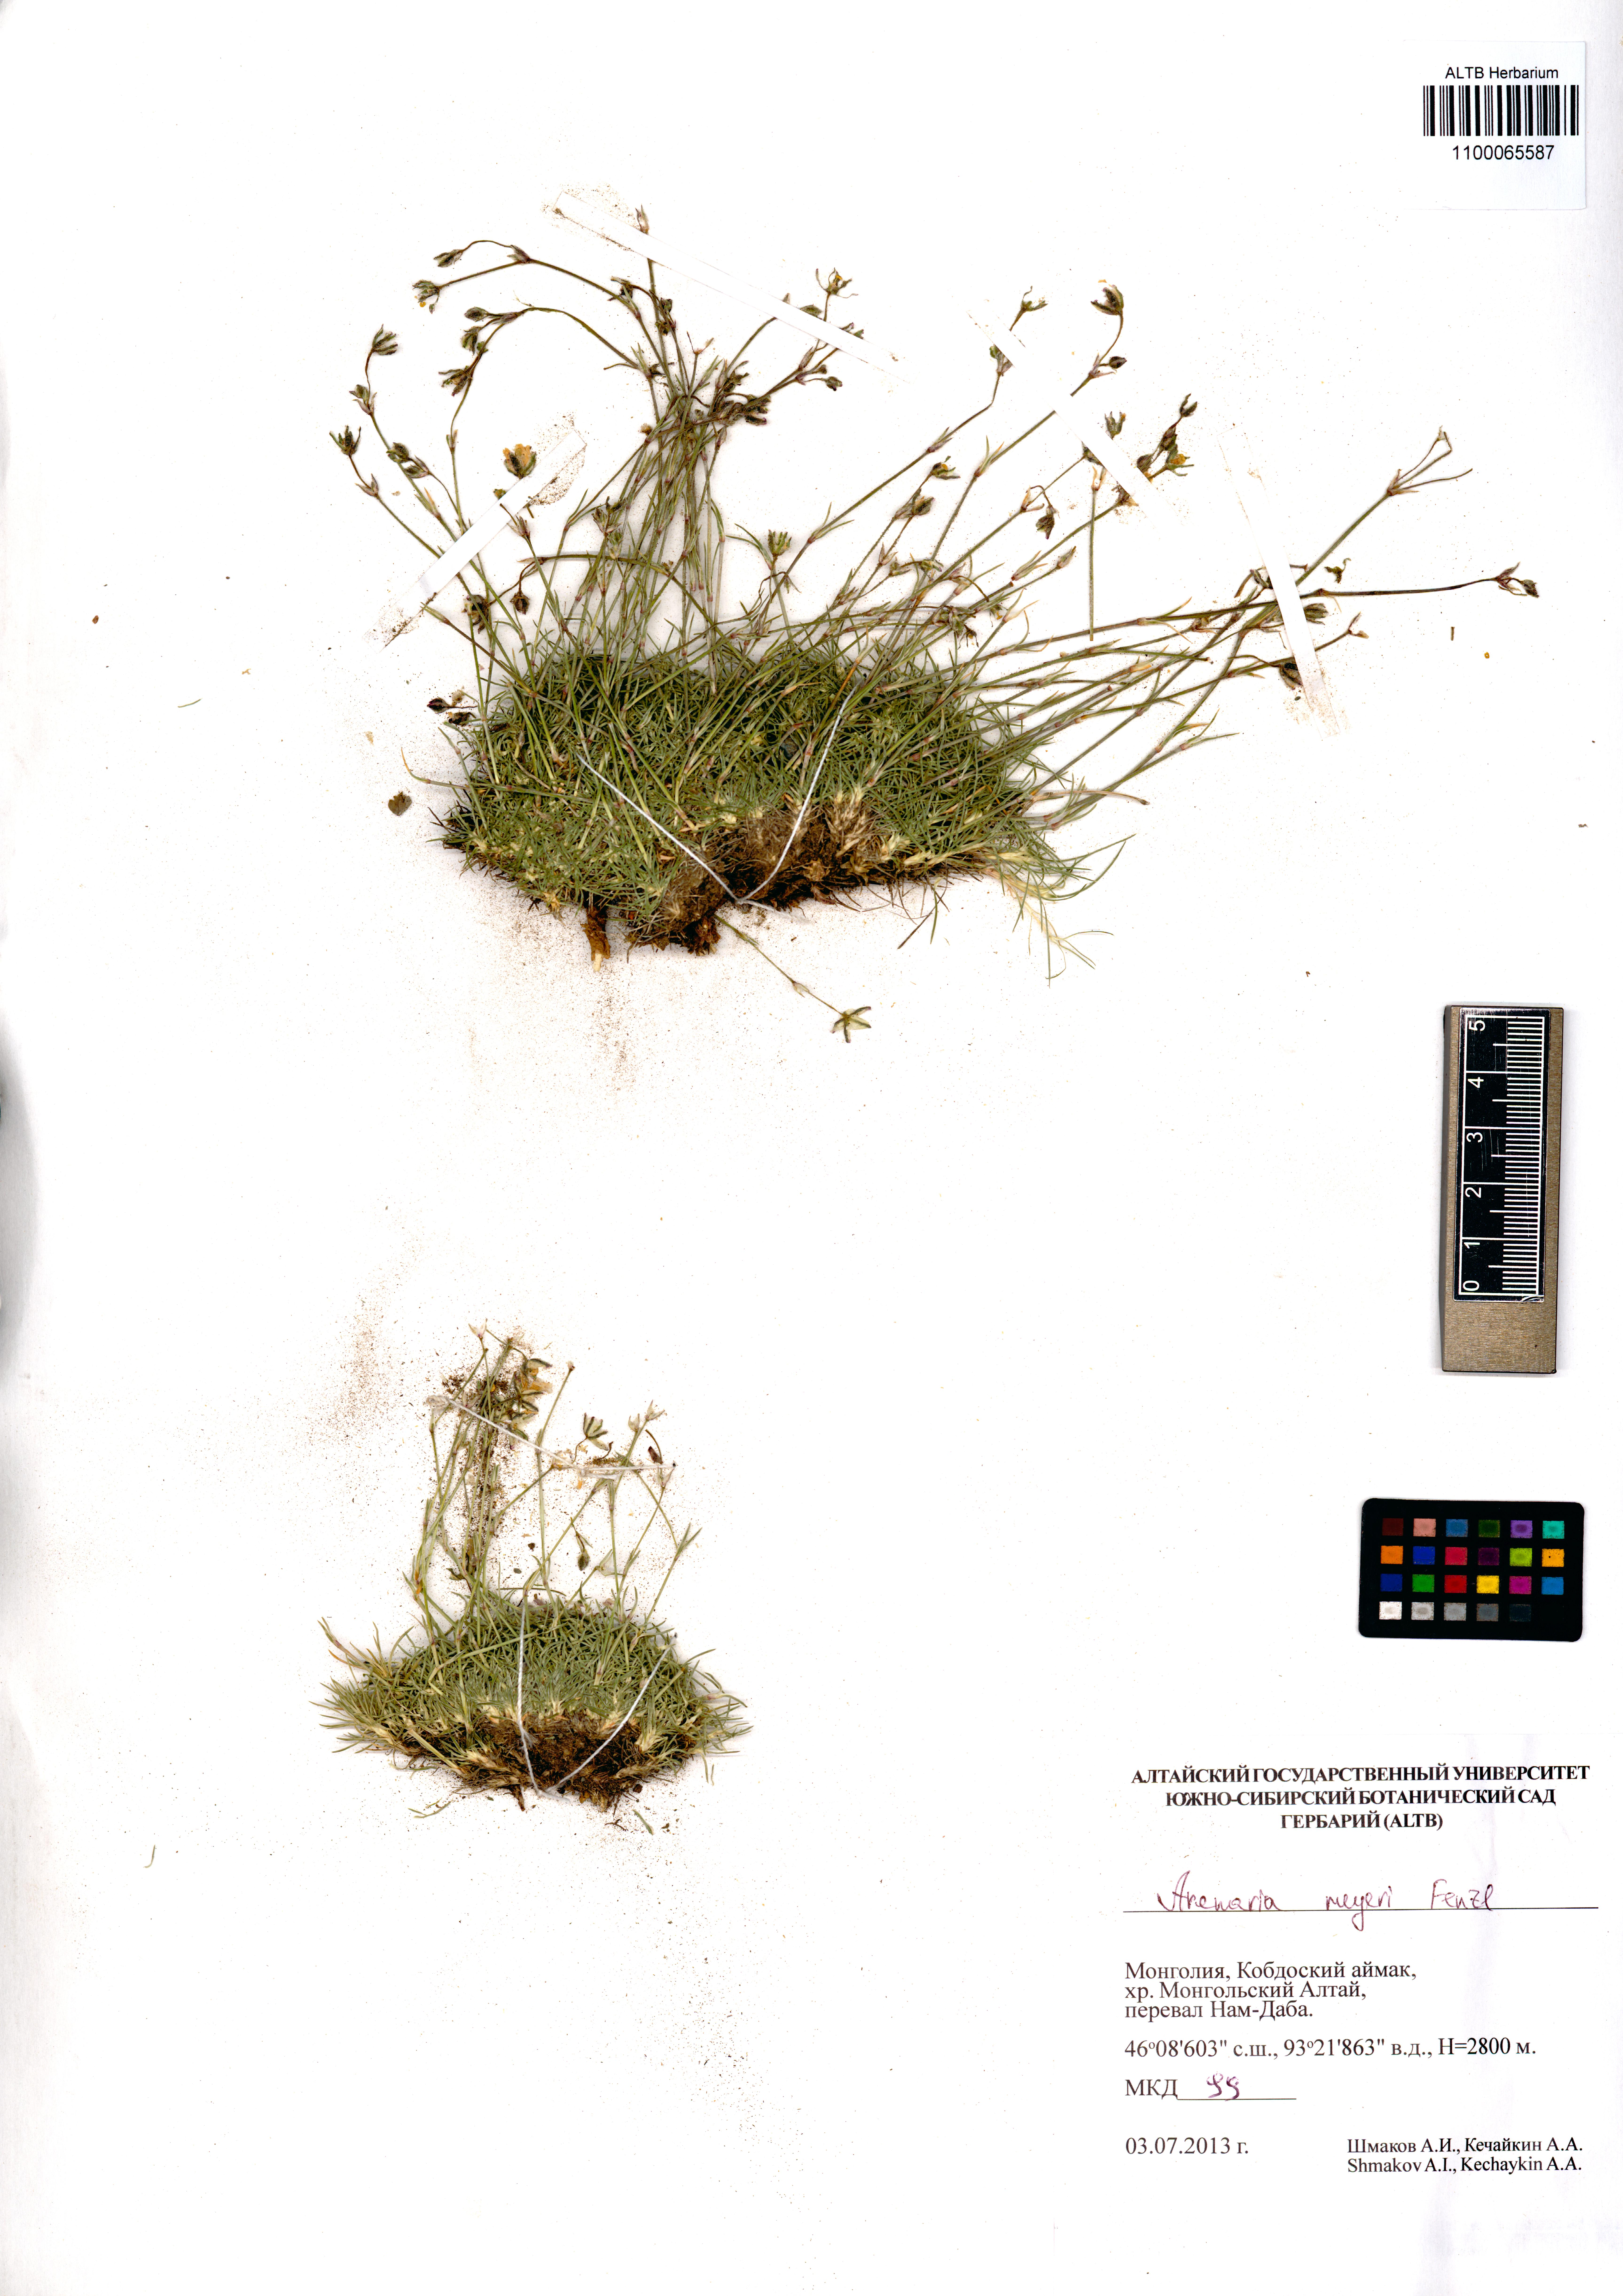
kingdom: Plantae
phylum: Tracheophyta
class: Magnoliopsida
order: Caryophyllales
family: Caryophyllaceae
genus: Eremogone
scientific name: Eremogone meyeri
